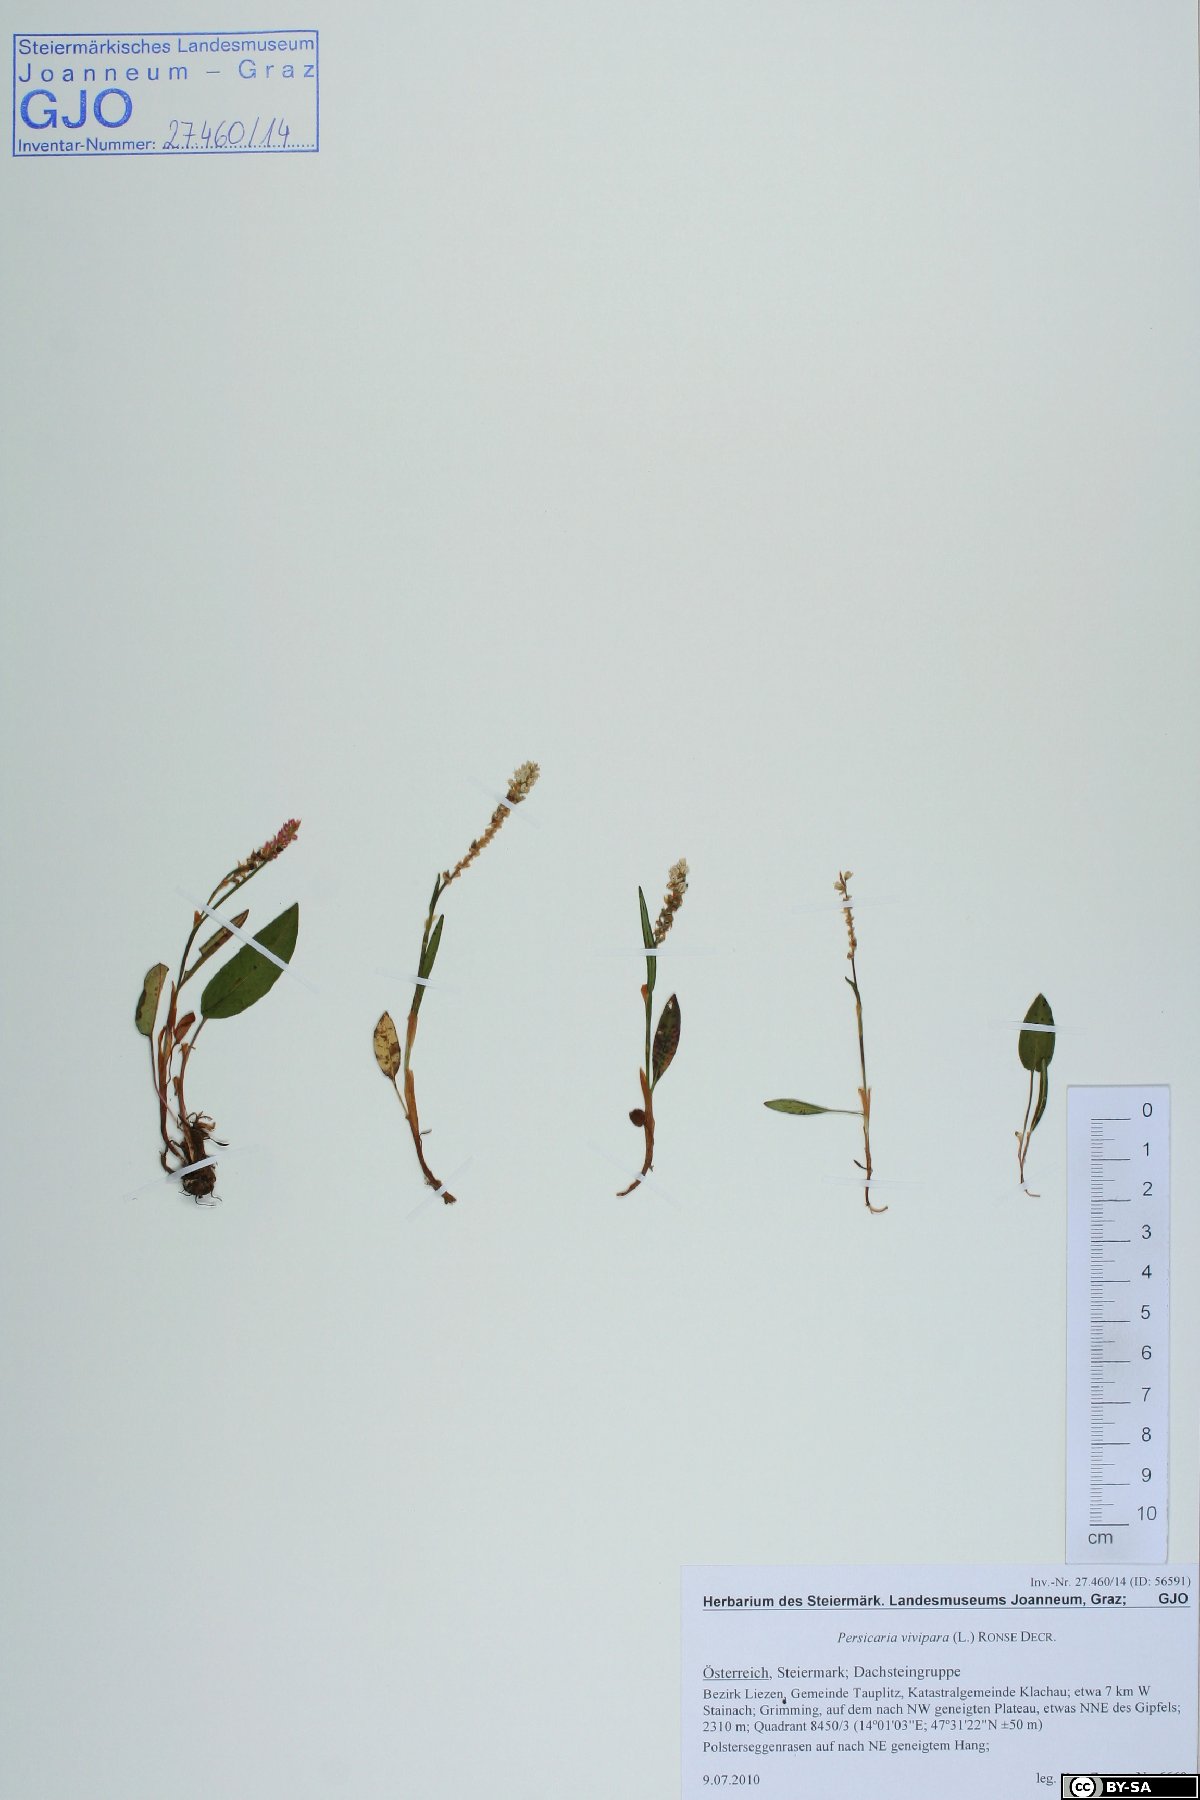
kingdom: Plantae
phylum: Tracheophyta
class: Magnoliopsida
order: Caryophyllales
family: Polygonaceae
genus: Bistorta
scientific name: Bistorta vivipara
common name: Alpine bistort
